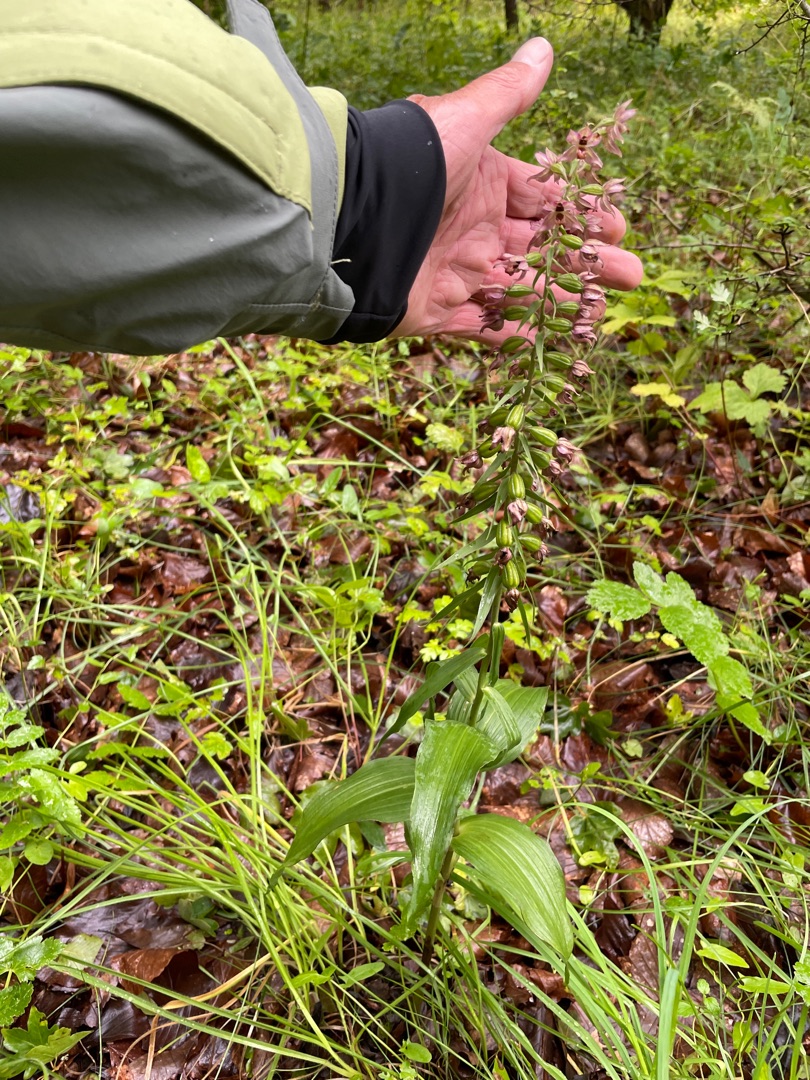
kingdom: Plantae
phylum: Tracheophyta
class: Liliopsida
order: Asparagales
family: Orchidaceae
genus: Epipactis
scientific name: Epipactis helleborine
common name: Skov-hullæbe
